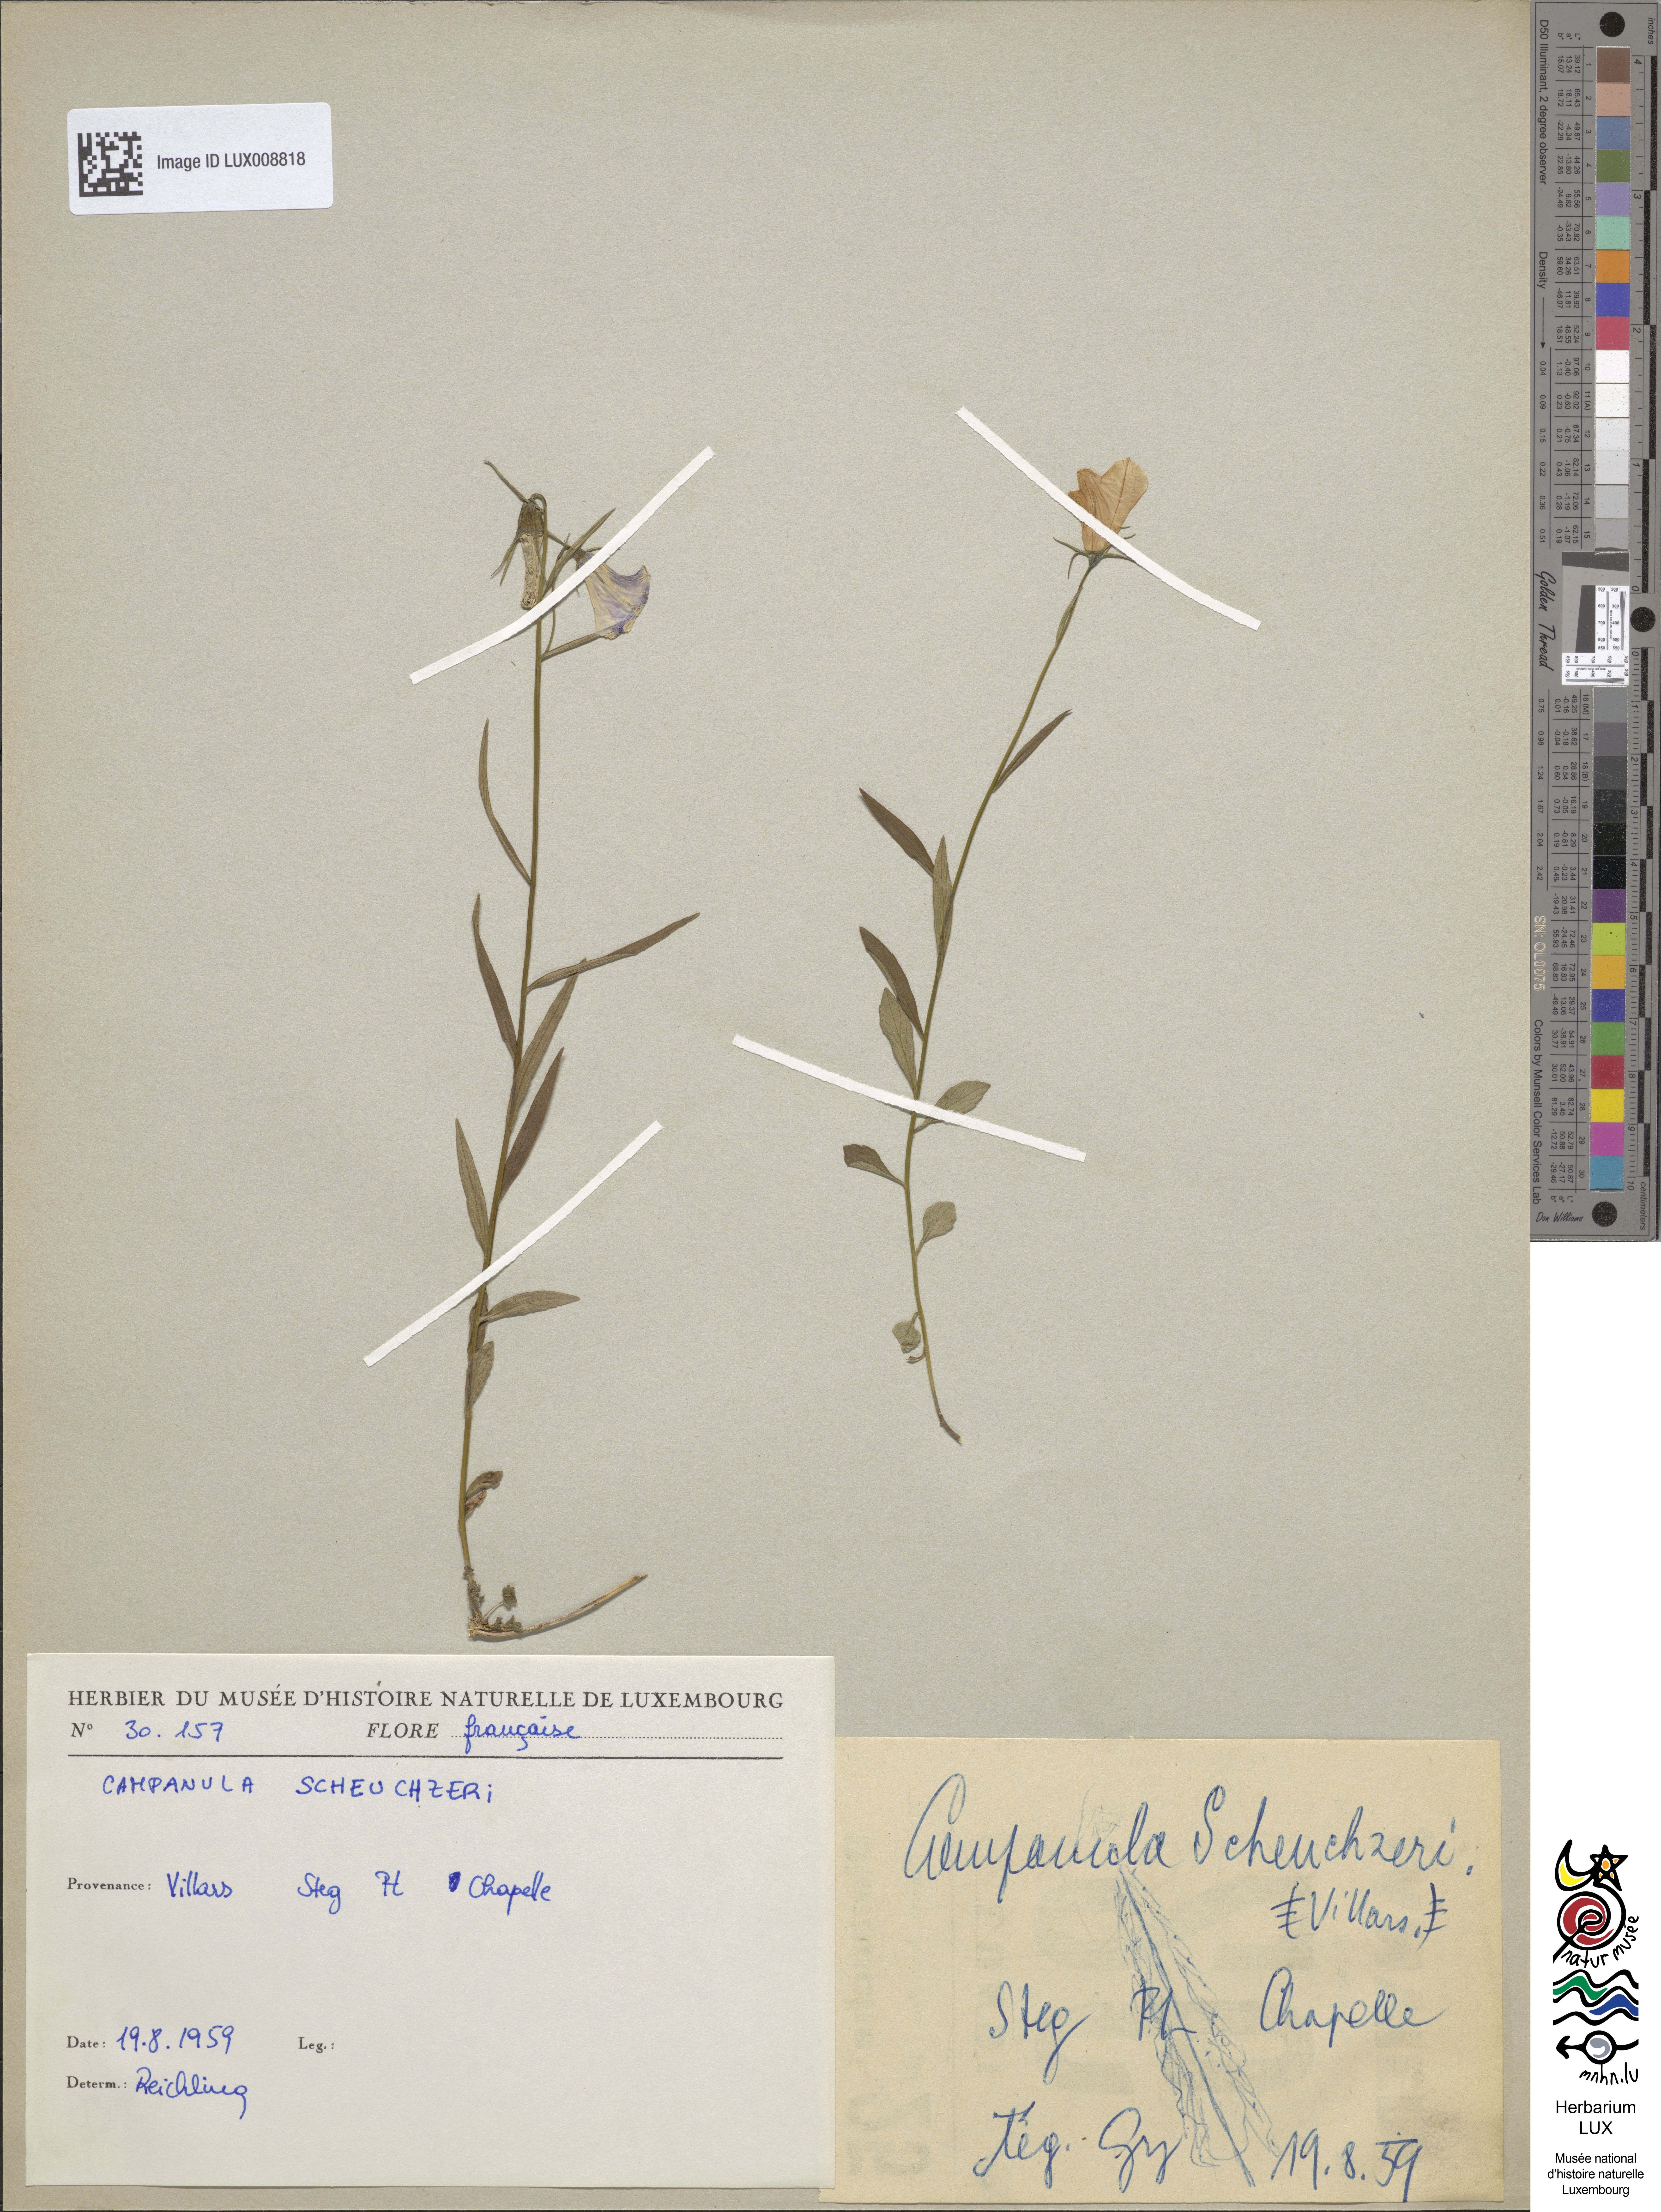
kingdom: Plantae
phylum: Tracheophyta
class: Magnoliopsida
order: Asterales
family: Campanulaceae
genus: Campanula
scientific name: Campanula scheuchzeri
